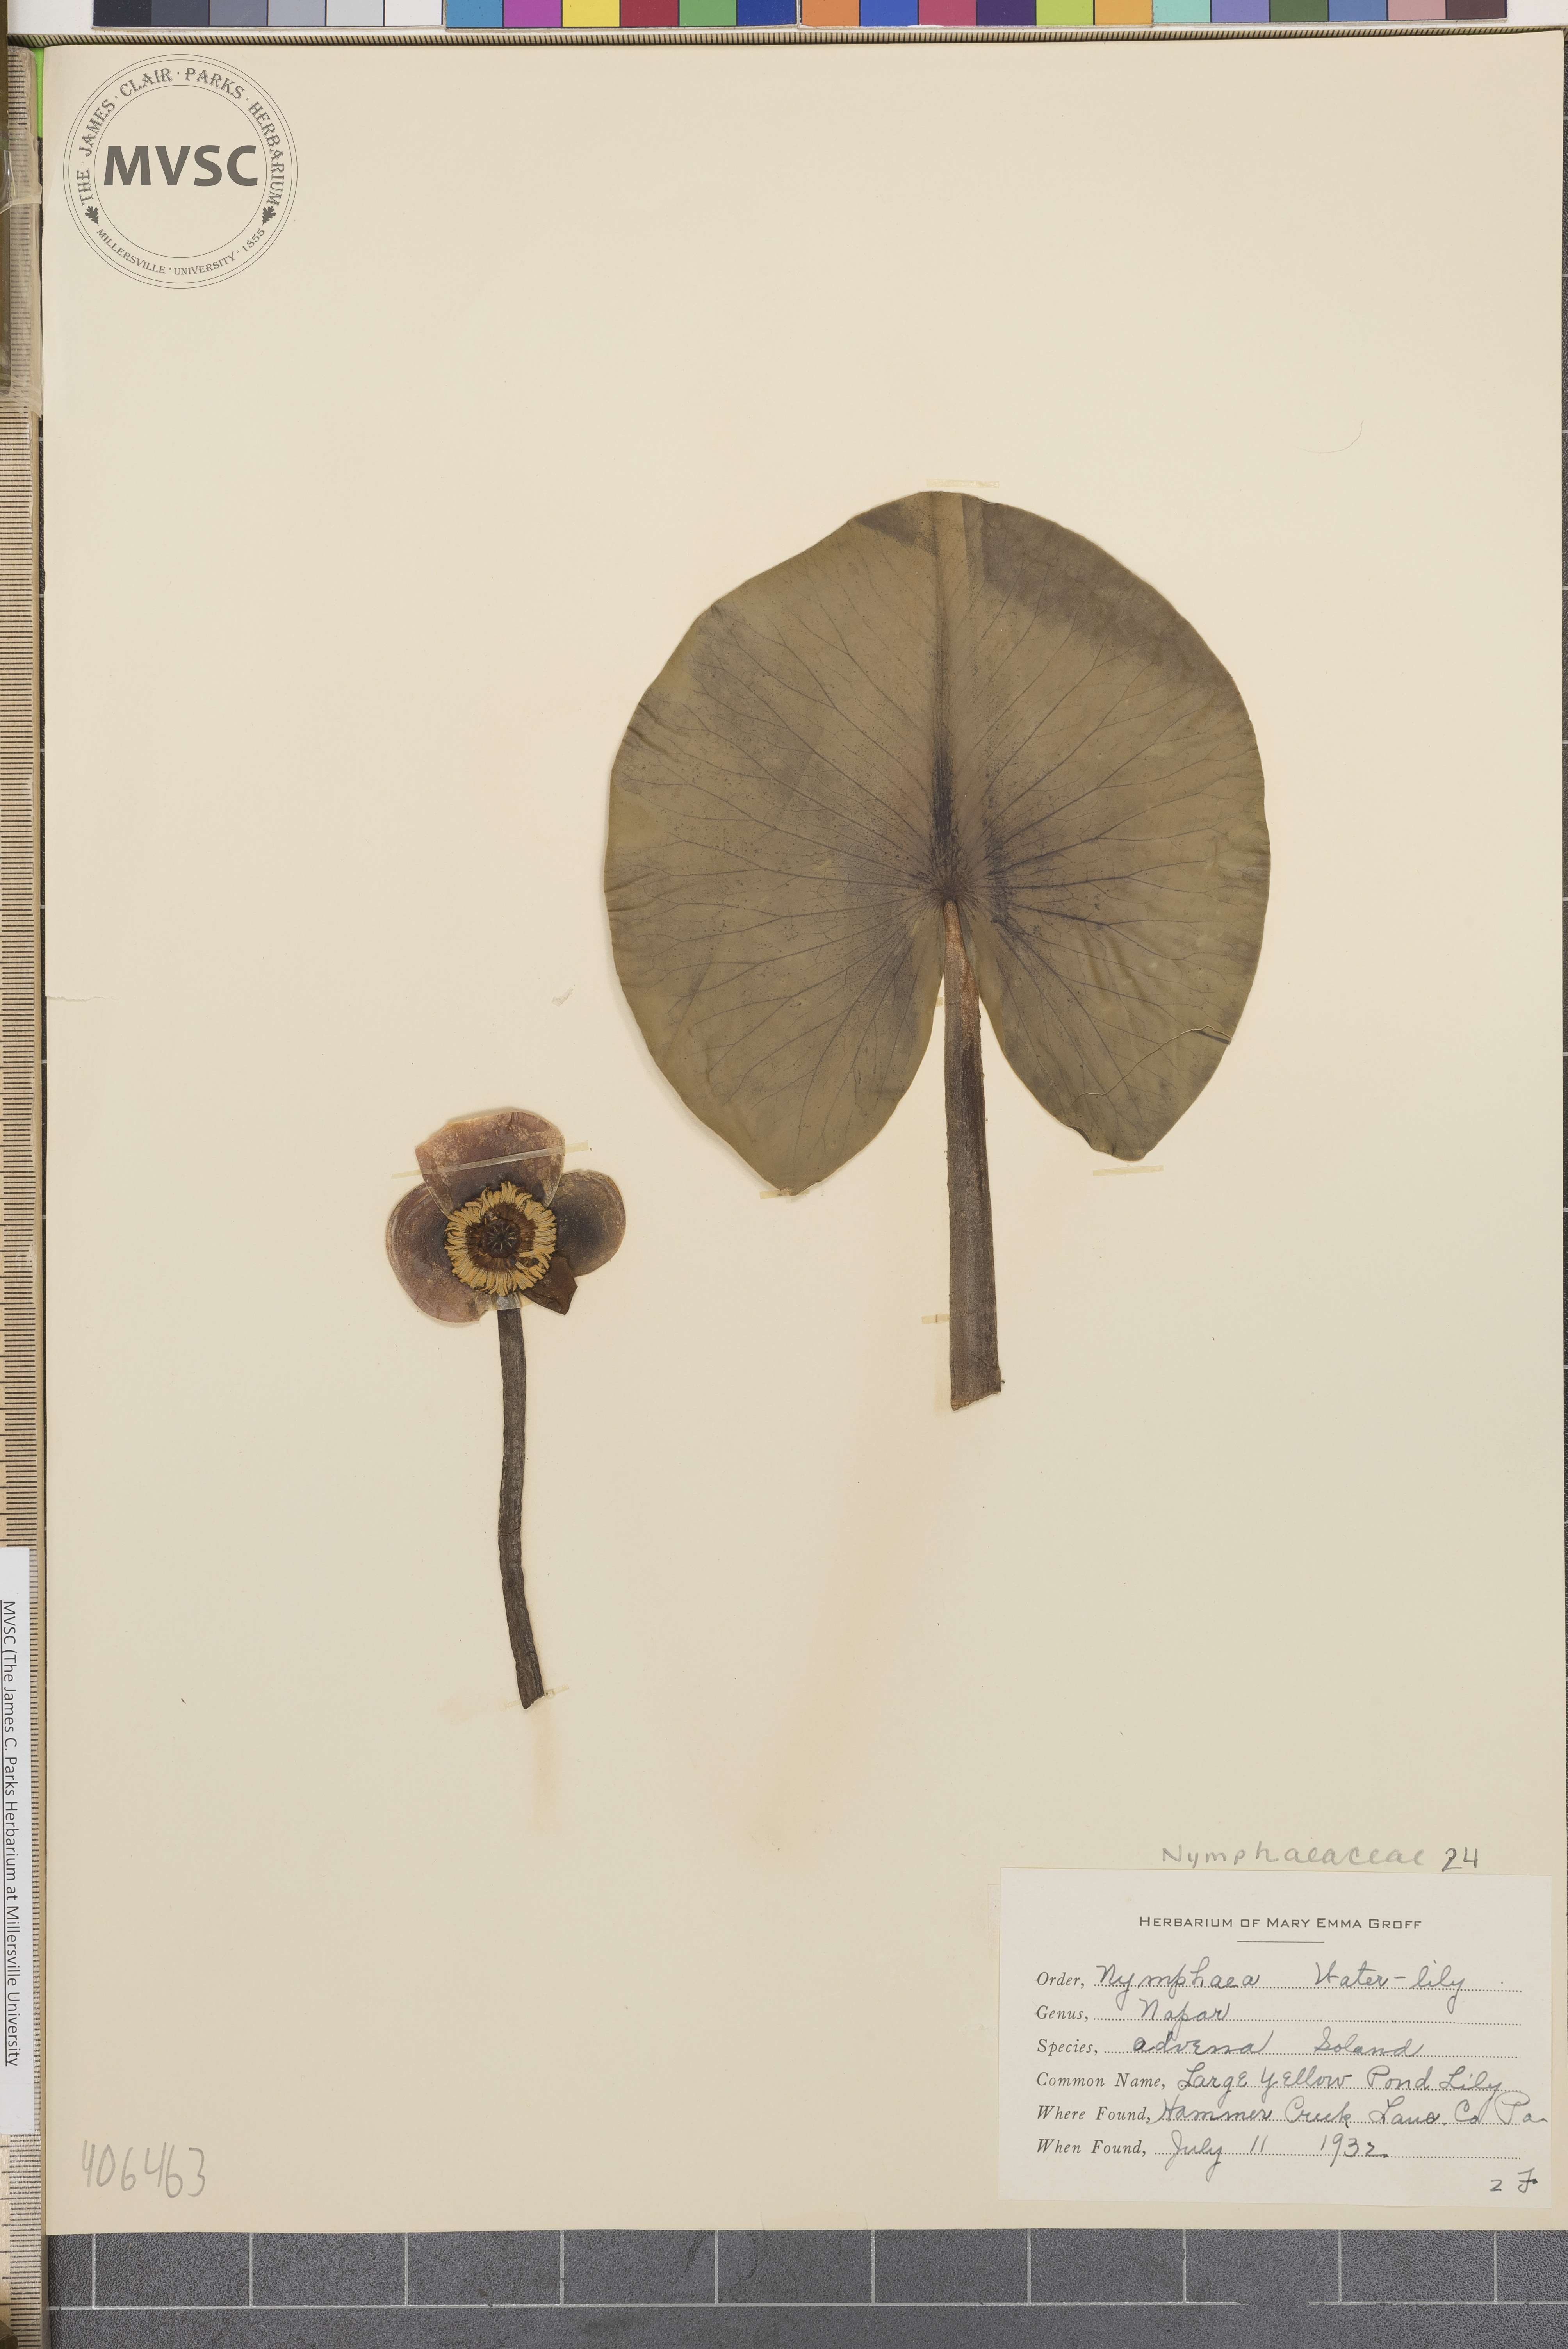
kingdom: Plantae
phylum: Tracheophyta
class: Magnoliopsida
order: Nymphaeales
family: Nymphaeaceae
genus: Nuphar
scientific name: Nuphar advena
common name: Large Yellow pond-lily
